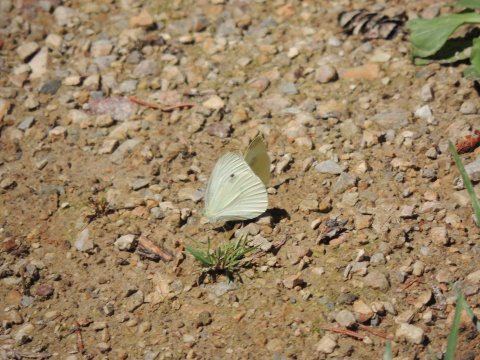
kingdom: Animalia
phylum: Arthropoda
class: Insecta
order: Lepidoptera
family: Pieridae
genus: Pieris
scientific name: Pieris rapae
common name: Cabbage White
